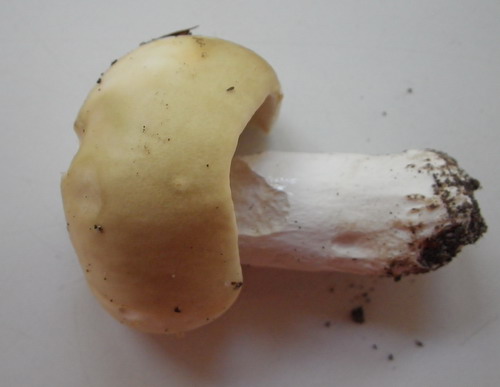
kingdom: Fungi
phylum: Basidiomycota
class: Agaricomycetes
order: Russulales
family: Russulaceae
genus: Russula
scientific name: Russula farinipes
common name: gul kam-skørhat
